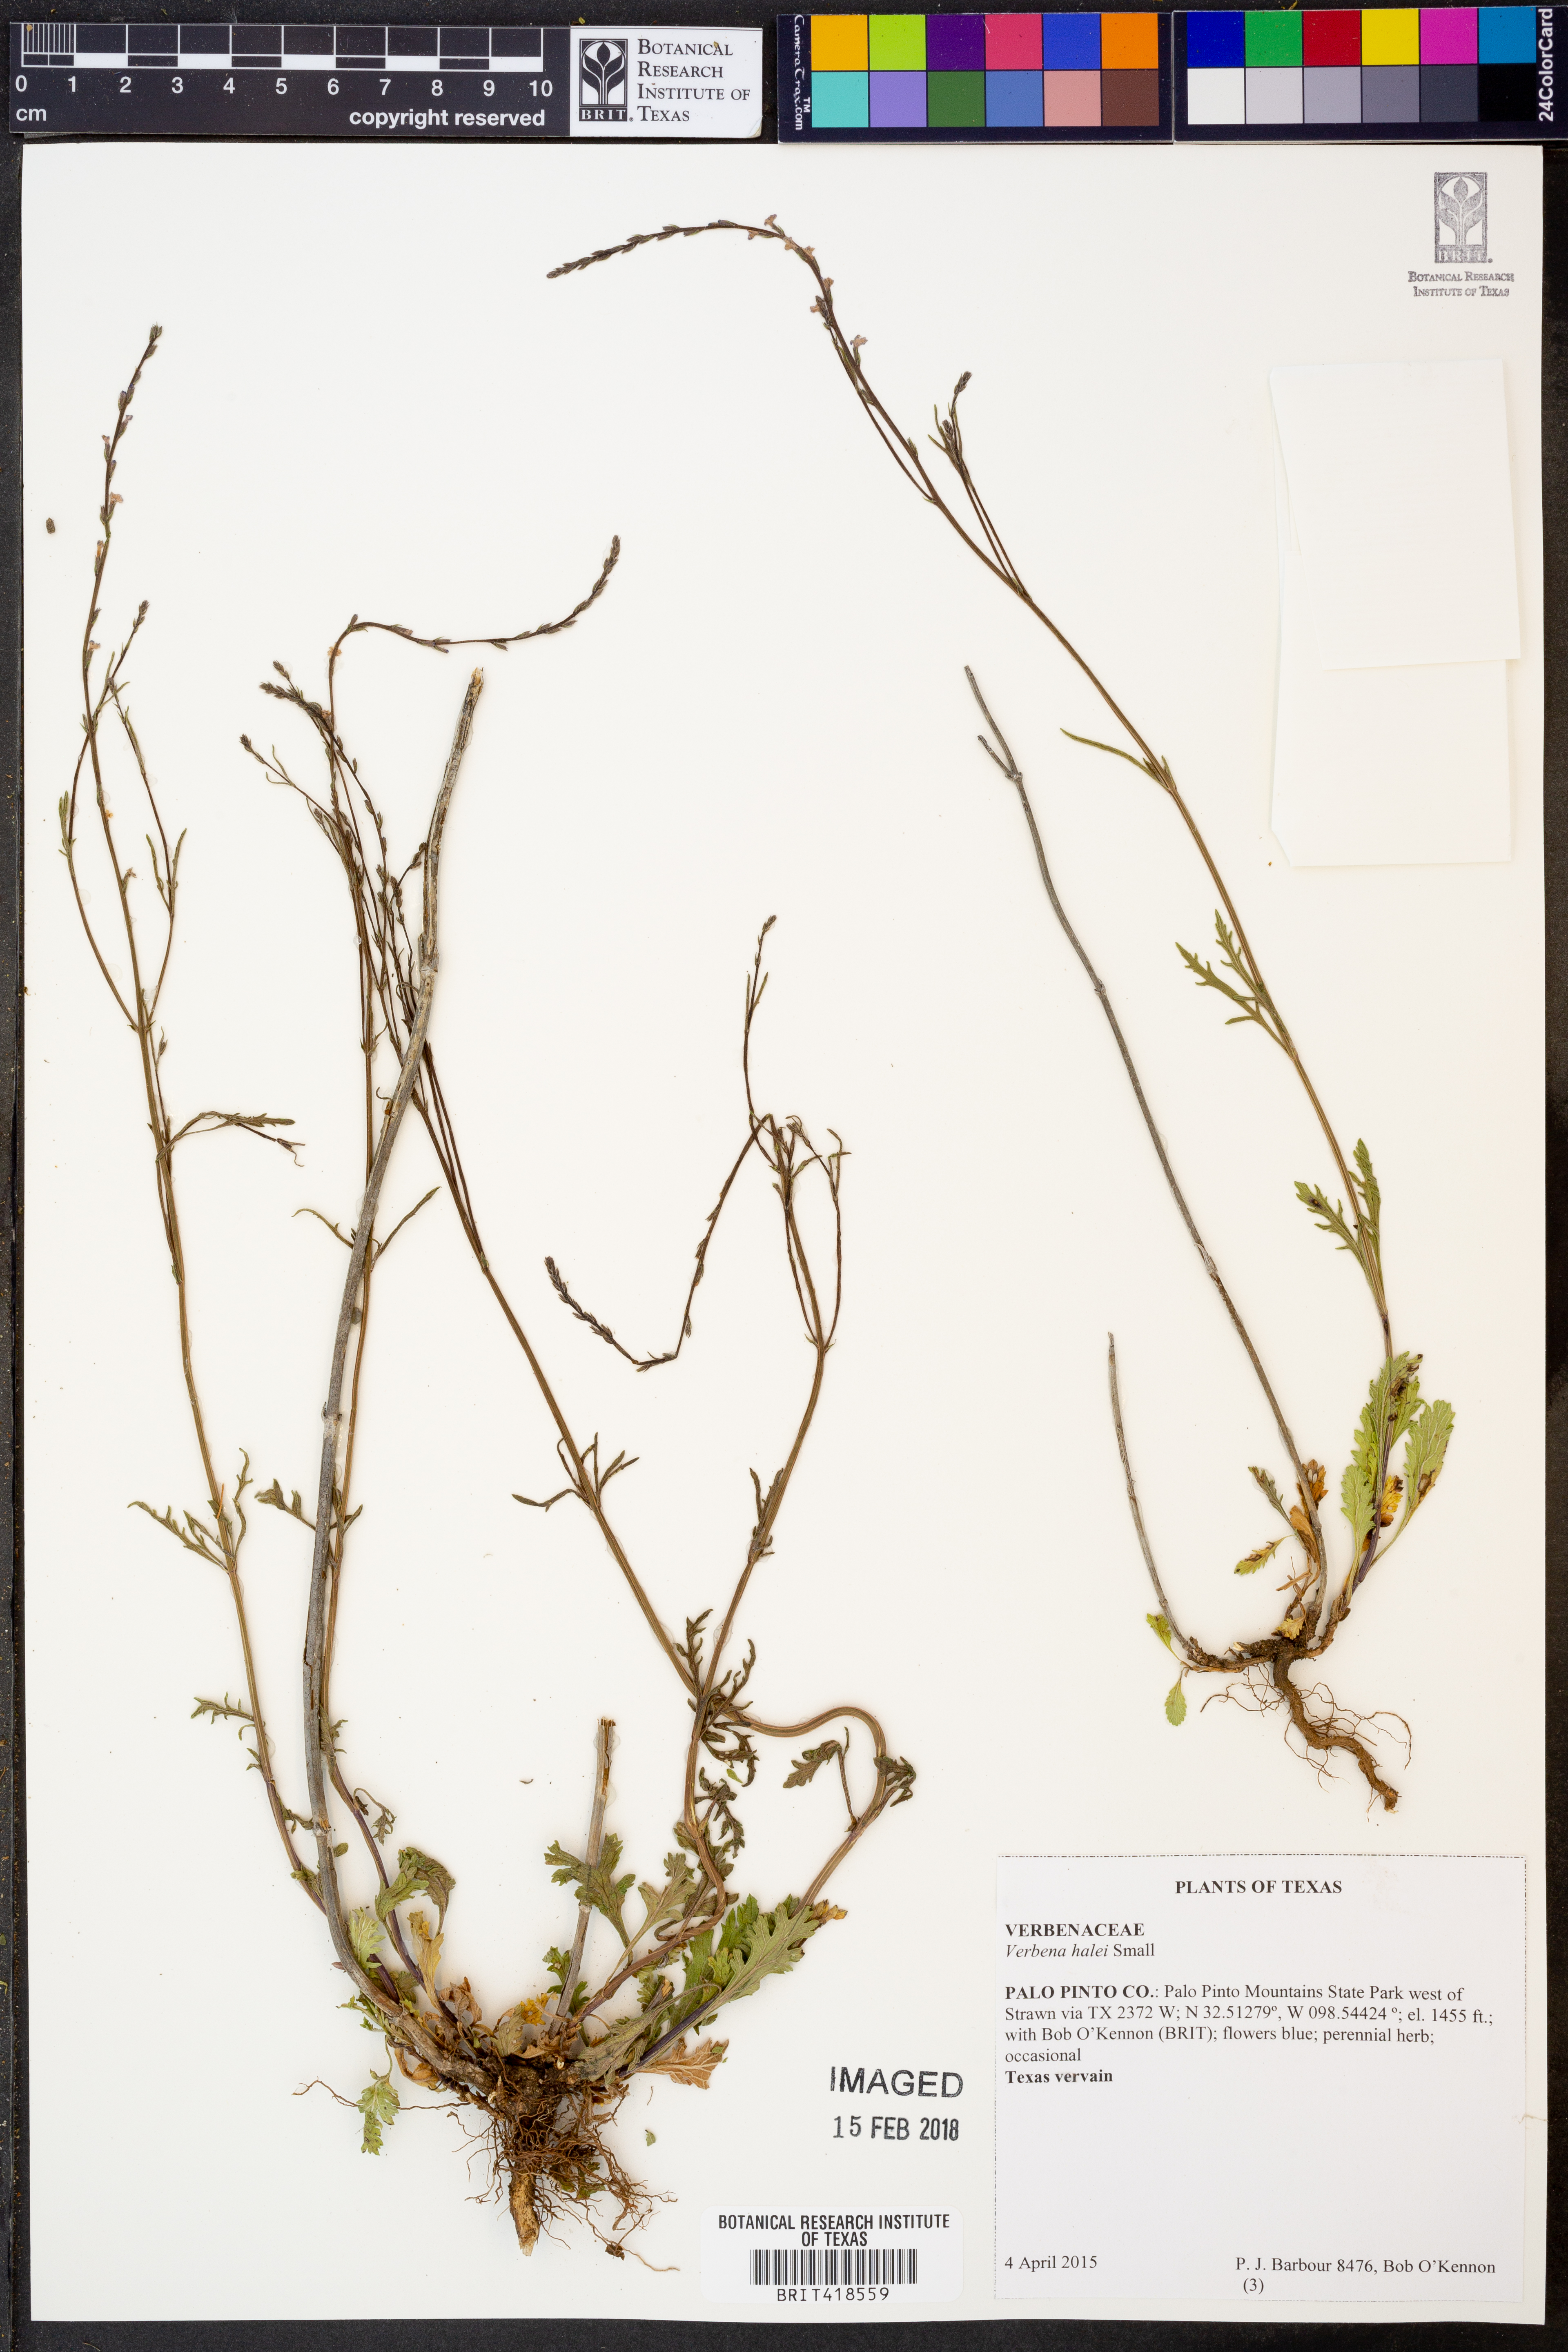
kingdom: Plantae
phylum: Tracheophyta
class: Magnoliopsida
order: Lamiales
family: Verbenaceae
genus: Verbena
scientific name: Verbena halei
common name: Texas vervain
